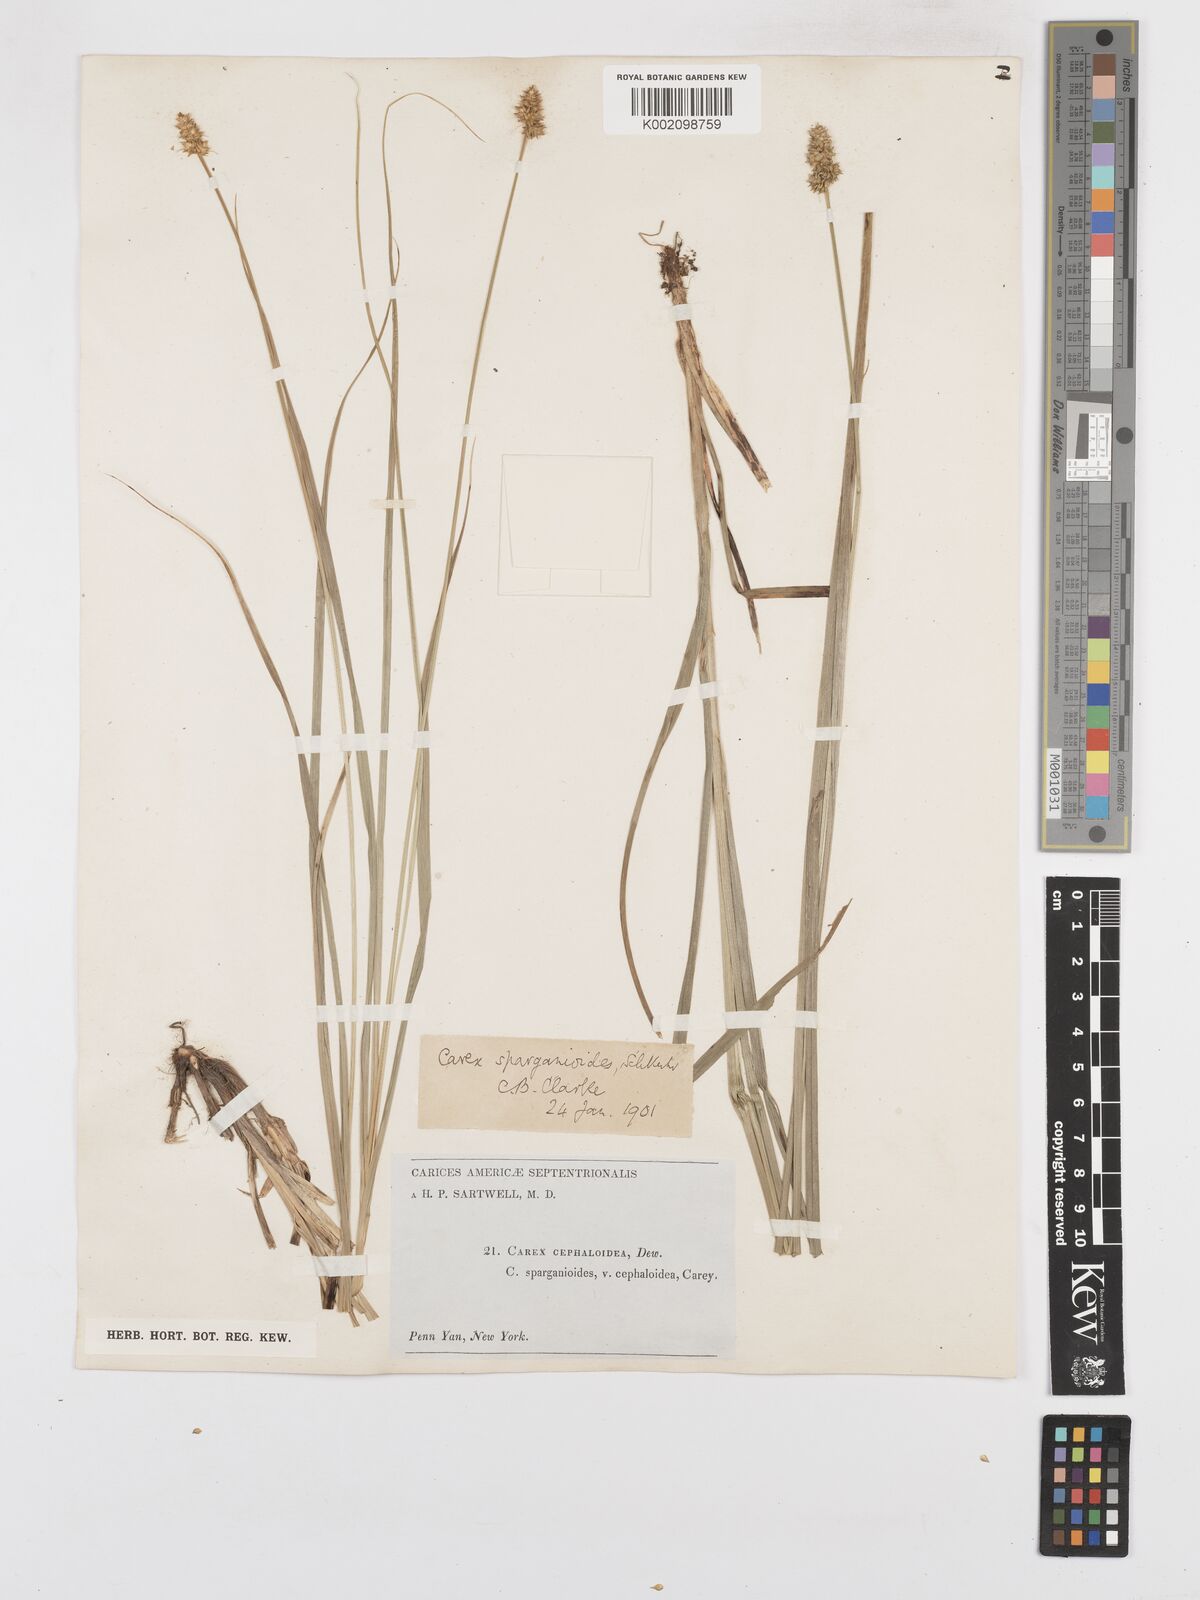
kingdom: Plantae
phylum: Tracheophyta
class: Liliopsida
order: Poales
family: Cyperaceae
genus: Carex
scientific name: Carex sparganioides
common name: Burreed sedge
